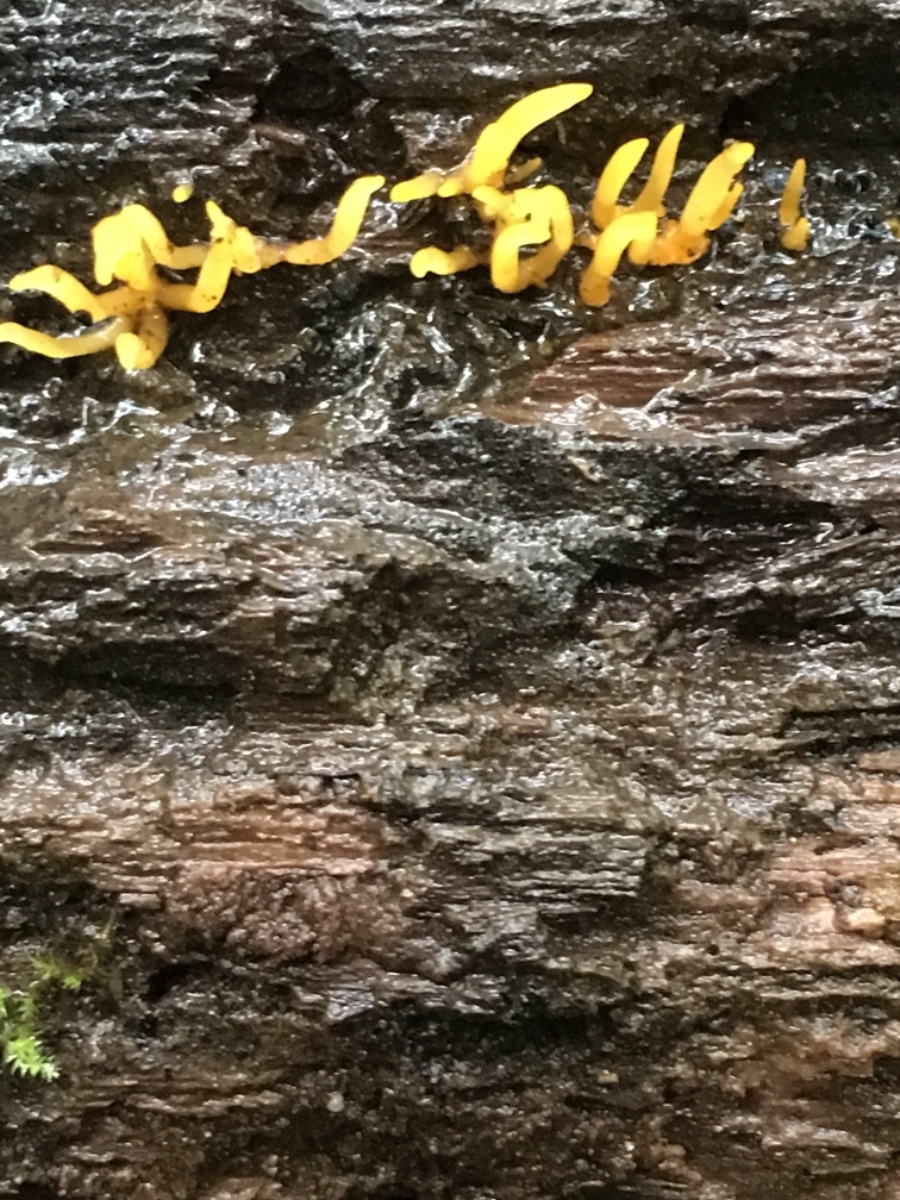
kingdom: Fungi
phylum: Basidiomycota
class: Dacrymycetes
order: Dacrymycetales
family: Dacrymycetaceae
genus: Calocera
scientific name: Calocera cornea
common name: liden guldgaffel
